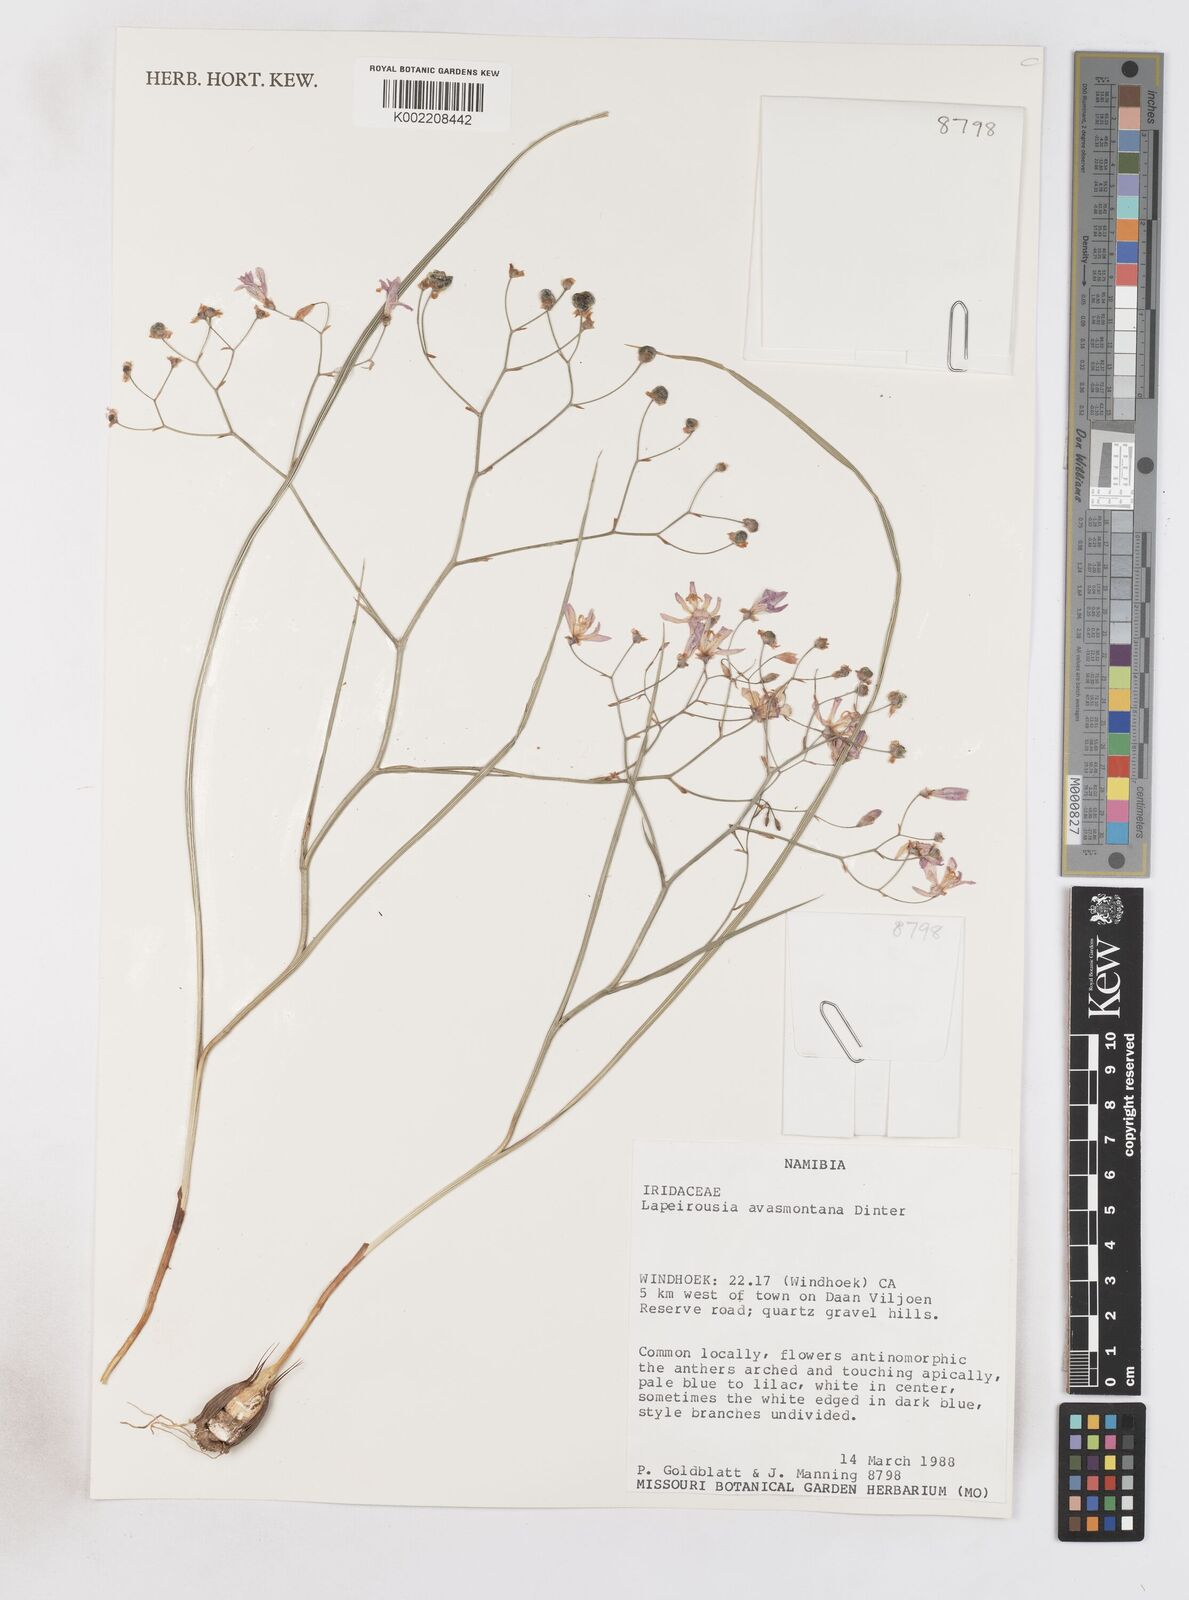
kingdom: Plantae
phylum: Tracheophyta
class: Liliopsida
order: Asparagales
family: Iridaceae
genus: Afrosolen
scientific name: Afrosolen avasmontanus
